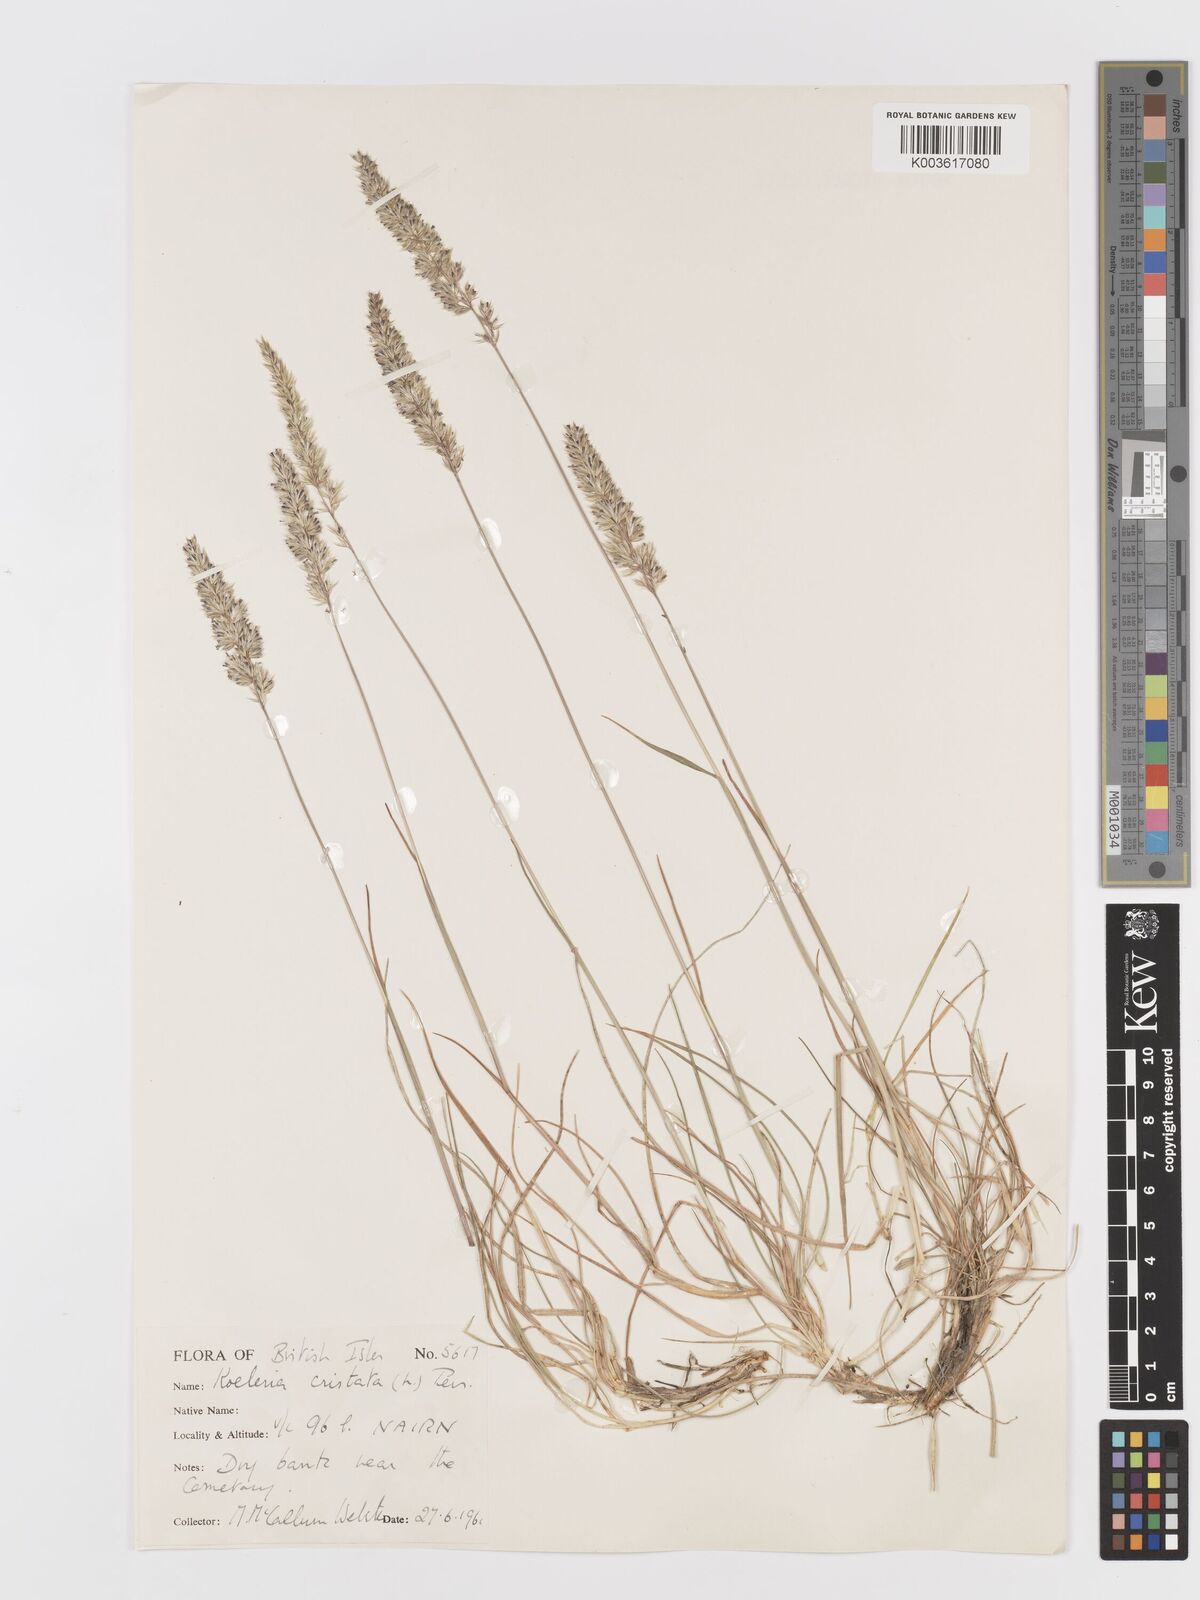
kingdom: Plantae
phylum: Tracheophyta
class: Liliopsida
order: Poales
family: Poaceae
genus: Koeleria
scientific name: Koeleria macrantha
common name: Crested hair-grass
